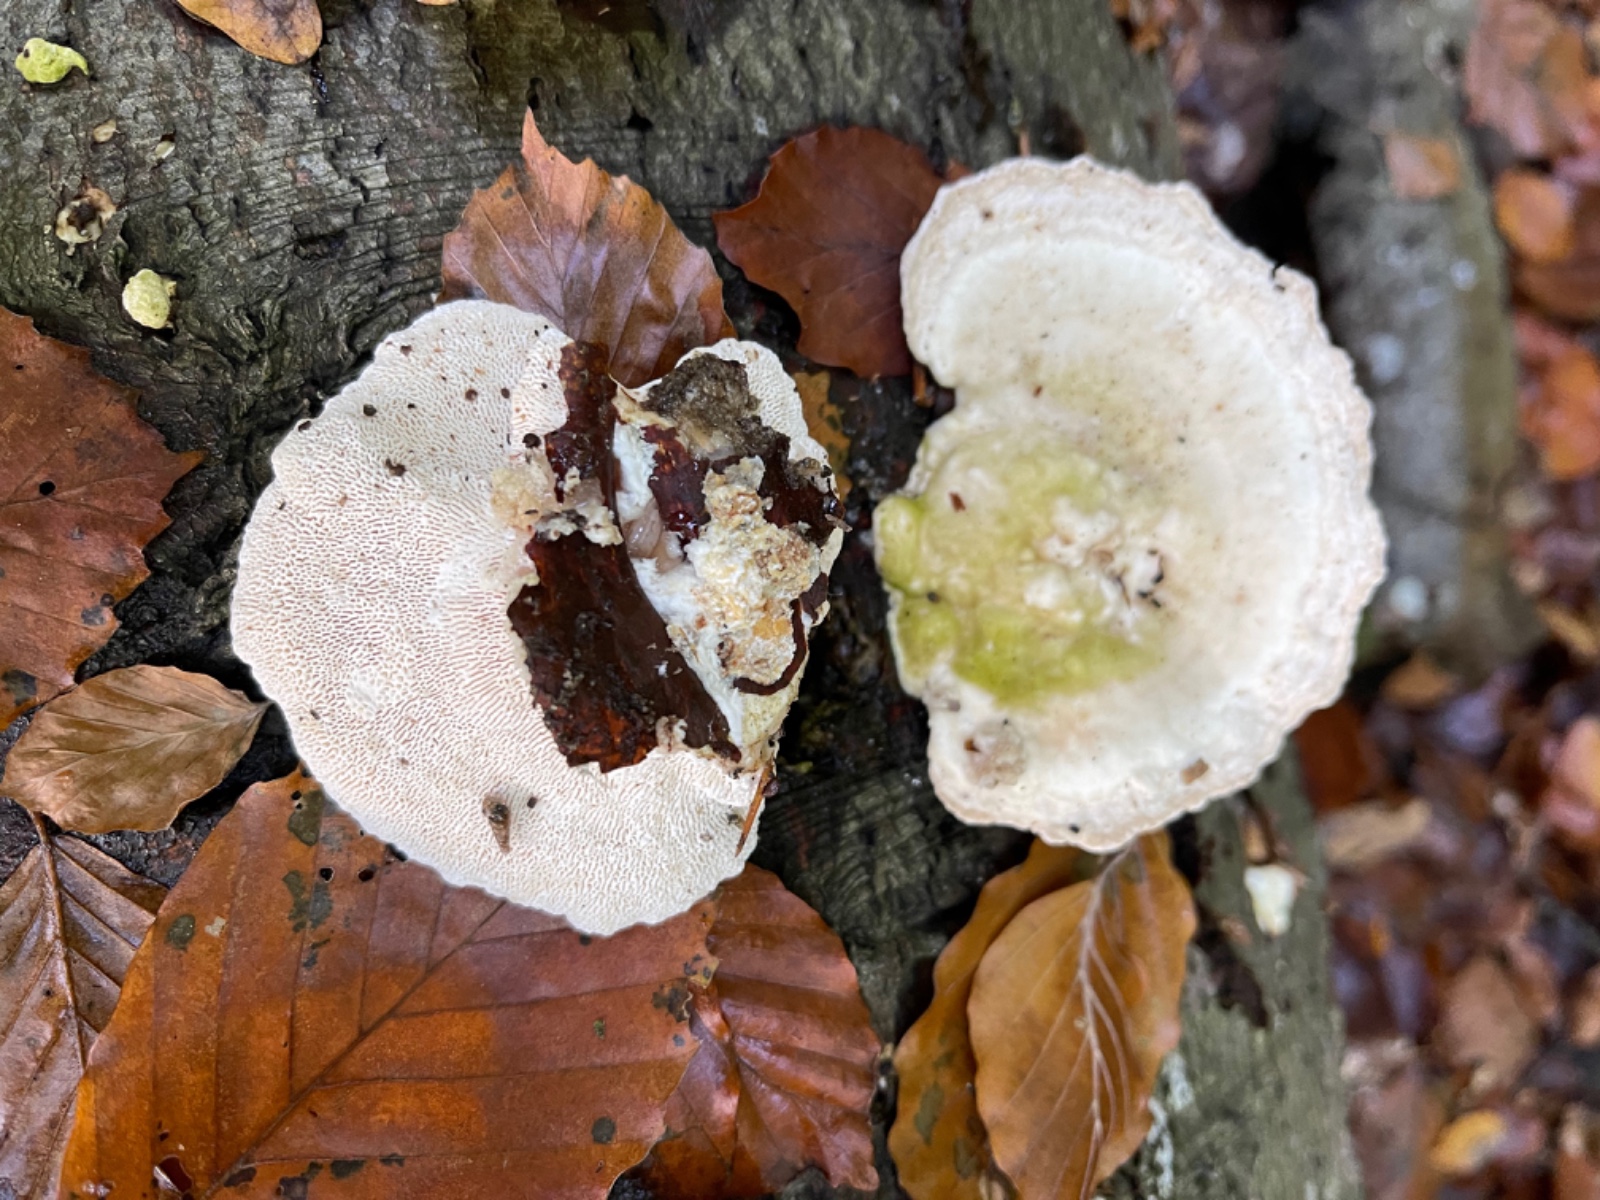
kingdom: Fungi
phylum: Basidiomycota
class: Agaricomycetes
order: Polyporales
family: Polyporaceae
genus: Trametes
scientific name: Trametes gibbosa
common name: puklet læderporesvamp
